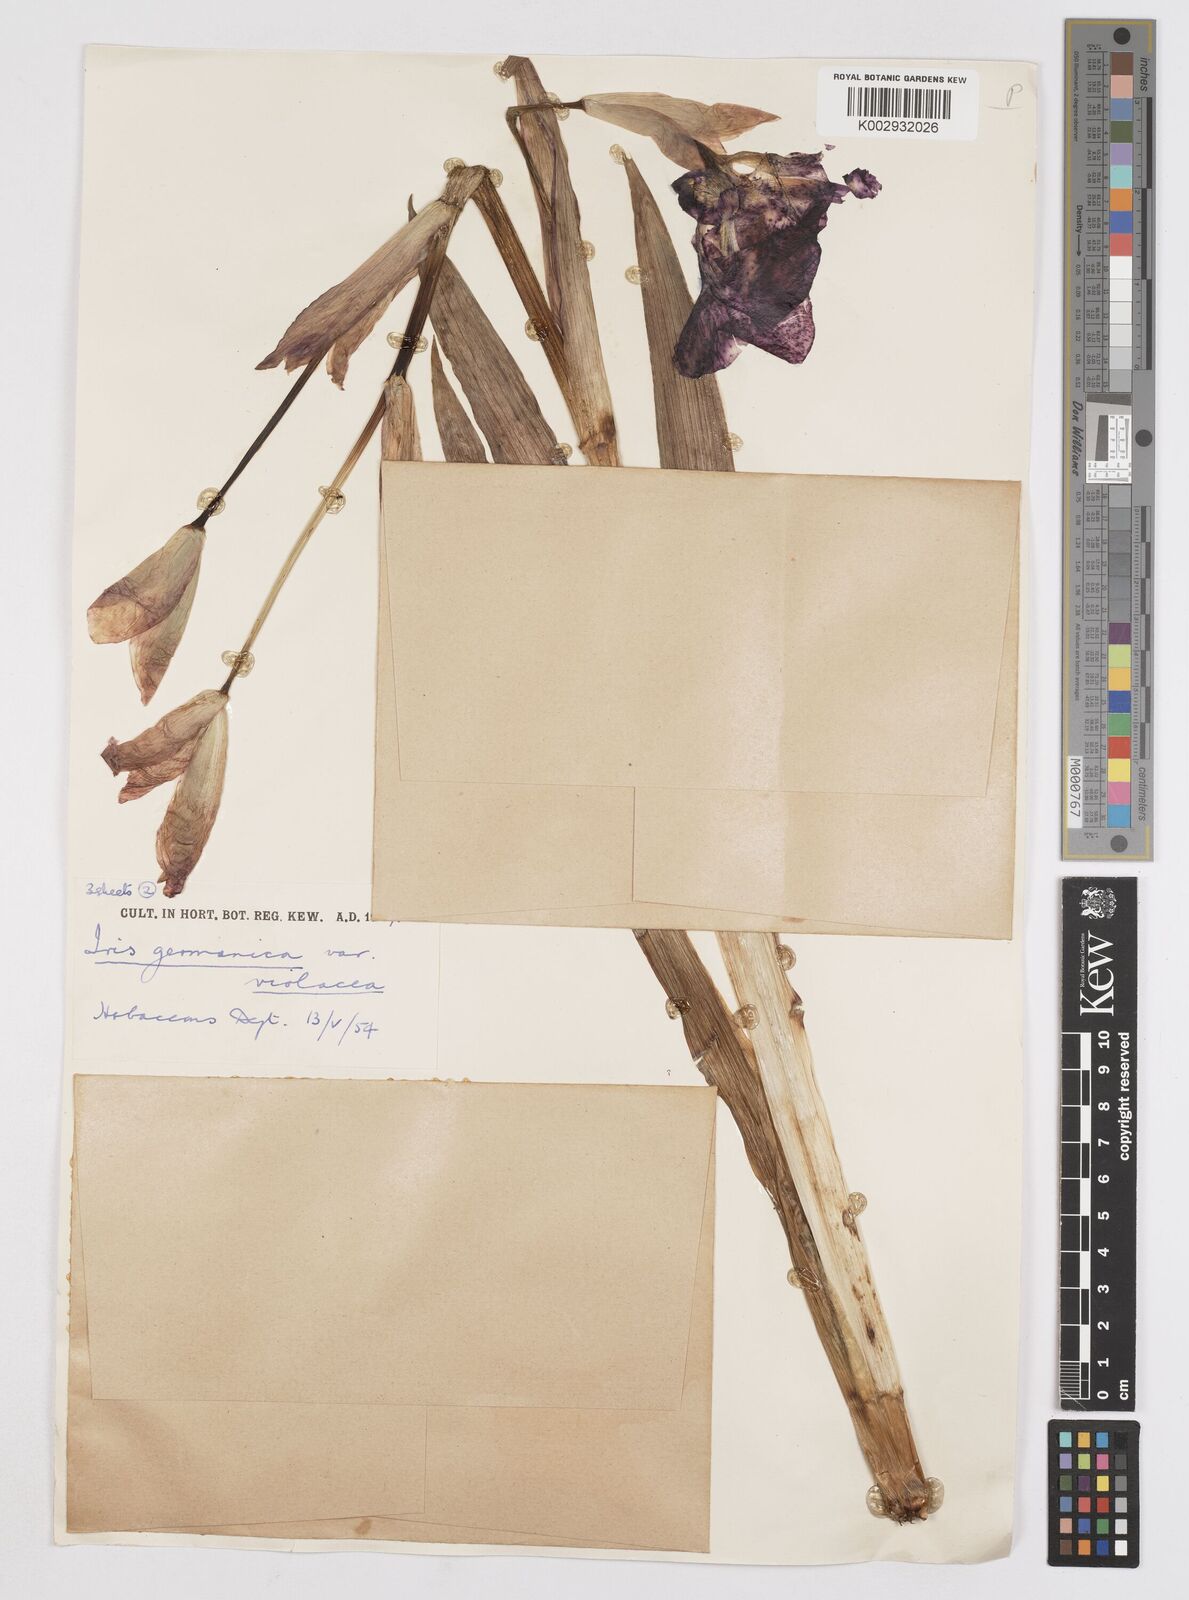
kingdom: Plantae
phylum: Tracheophyta
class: Liliopsida
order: Asparagales
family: Iridaceae
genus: Iris
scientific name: Iris germanica
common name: German iris
